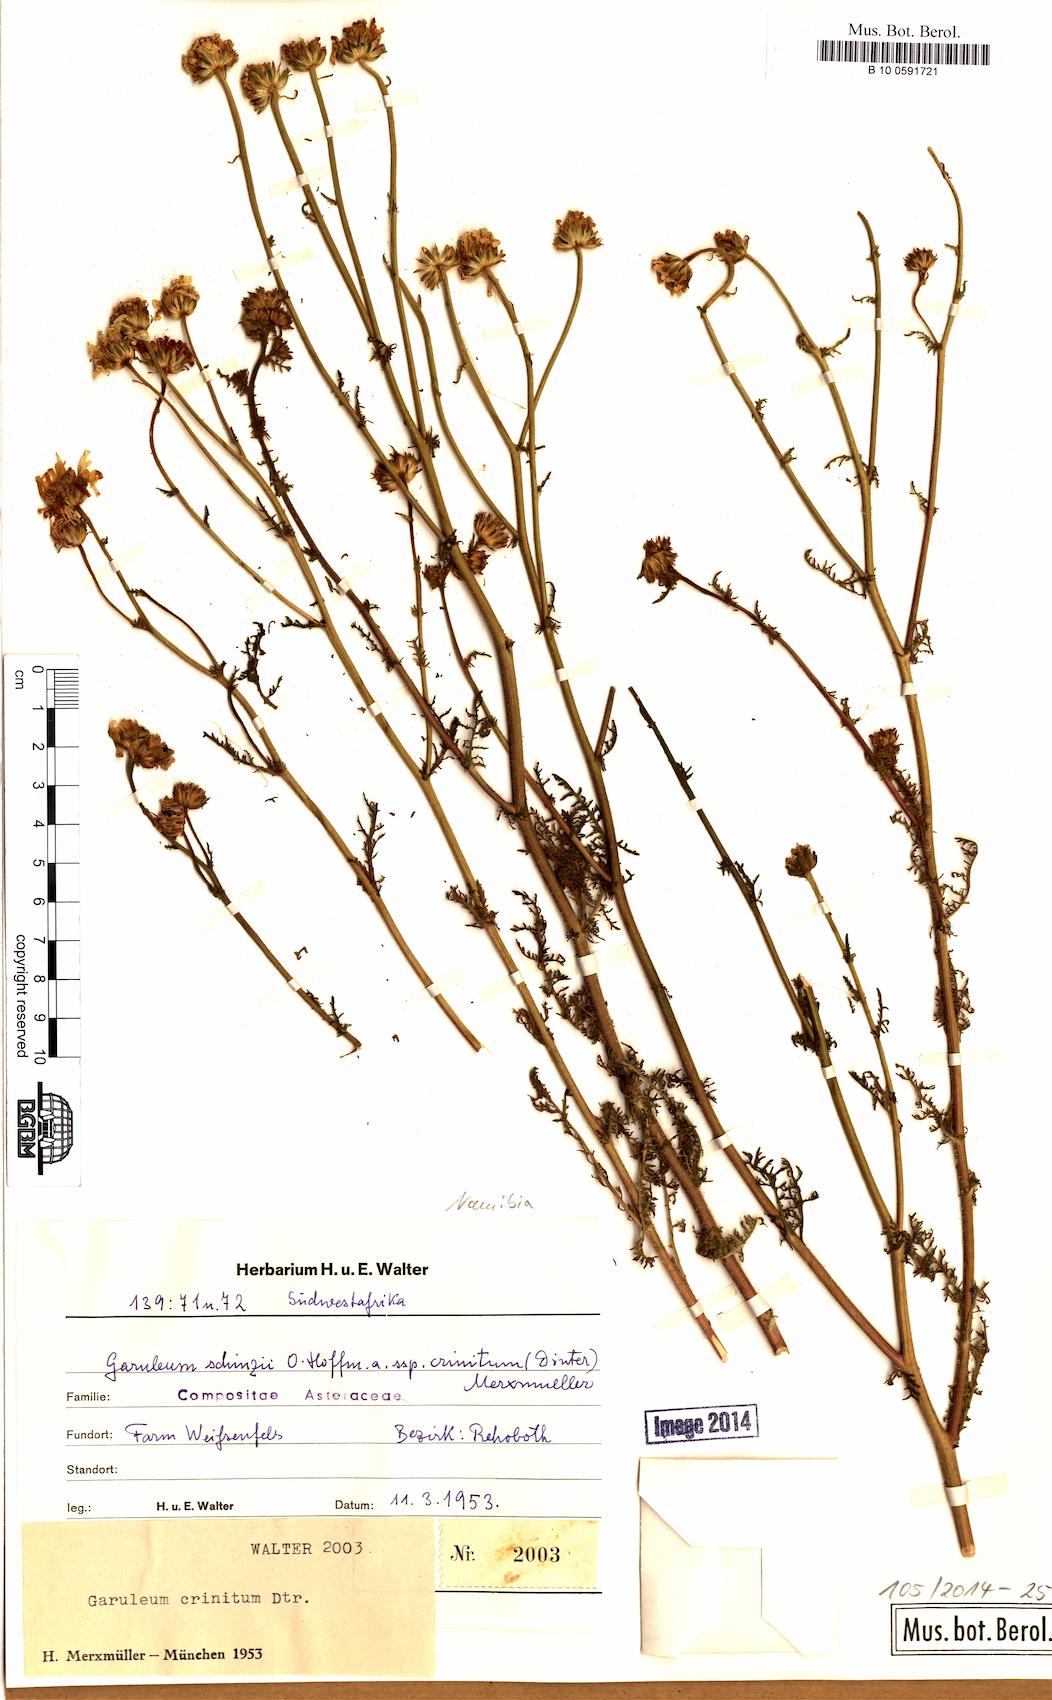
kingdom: Plantae
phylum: Tracheophyta
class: Magnoliopsida
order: Asterales
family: Asteraceae
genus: Garuleum
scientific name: Garuleum schinzii
